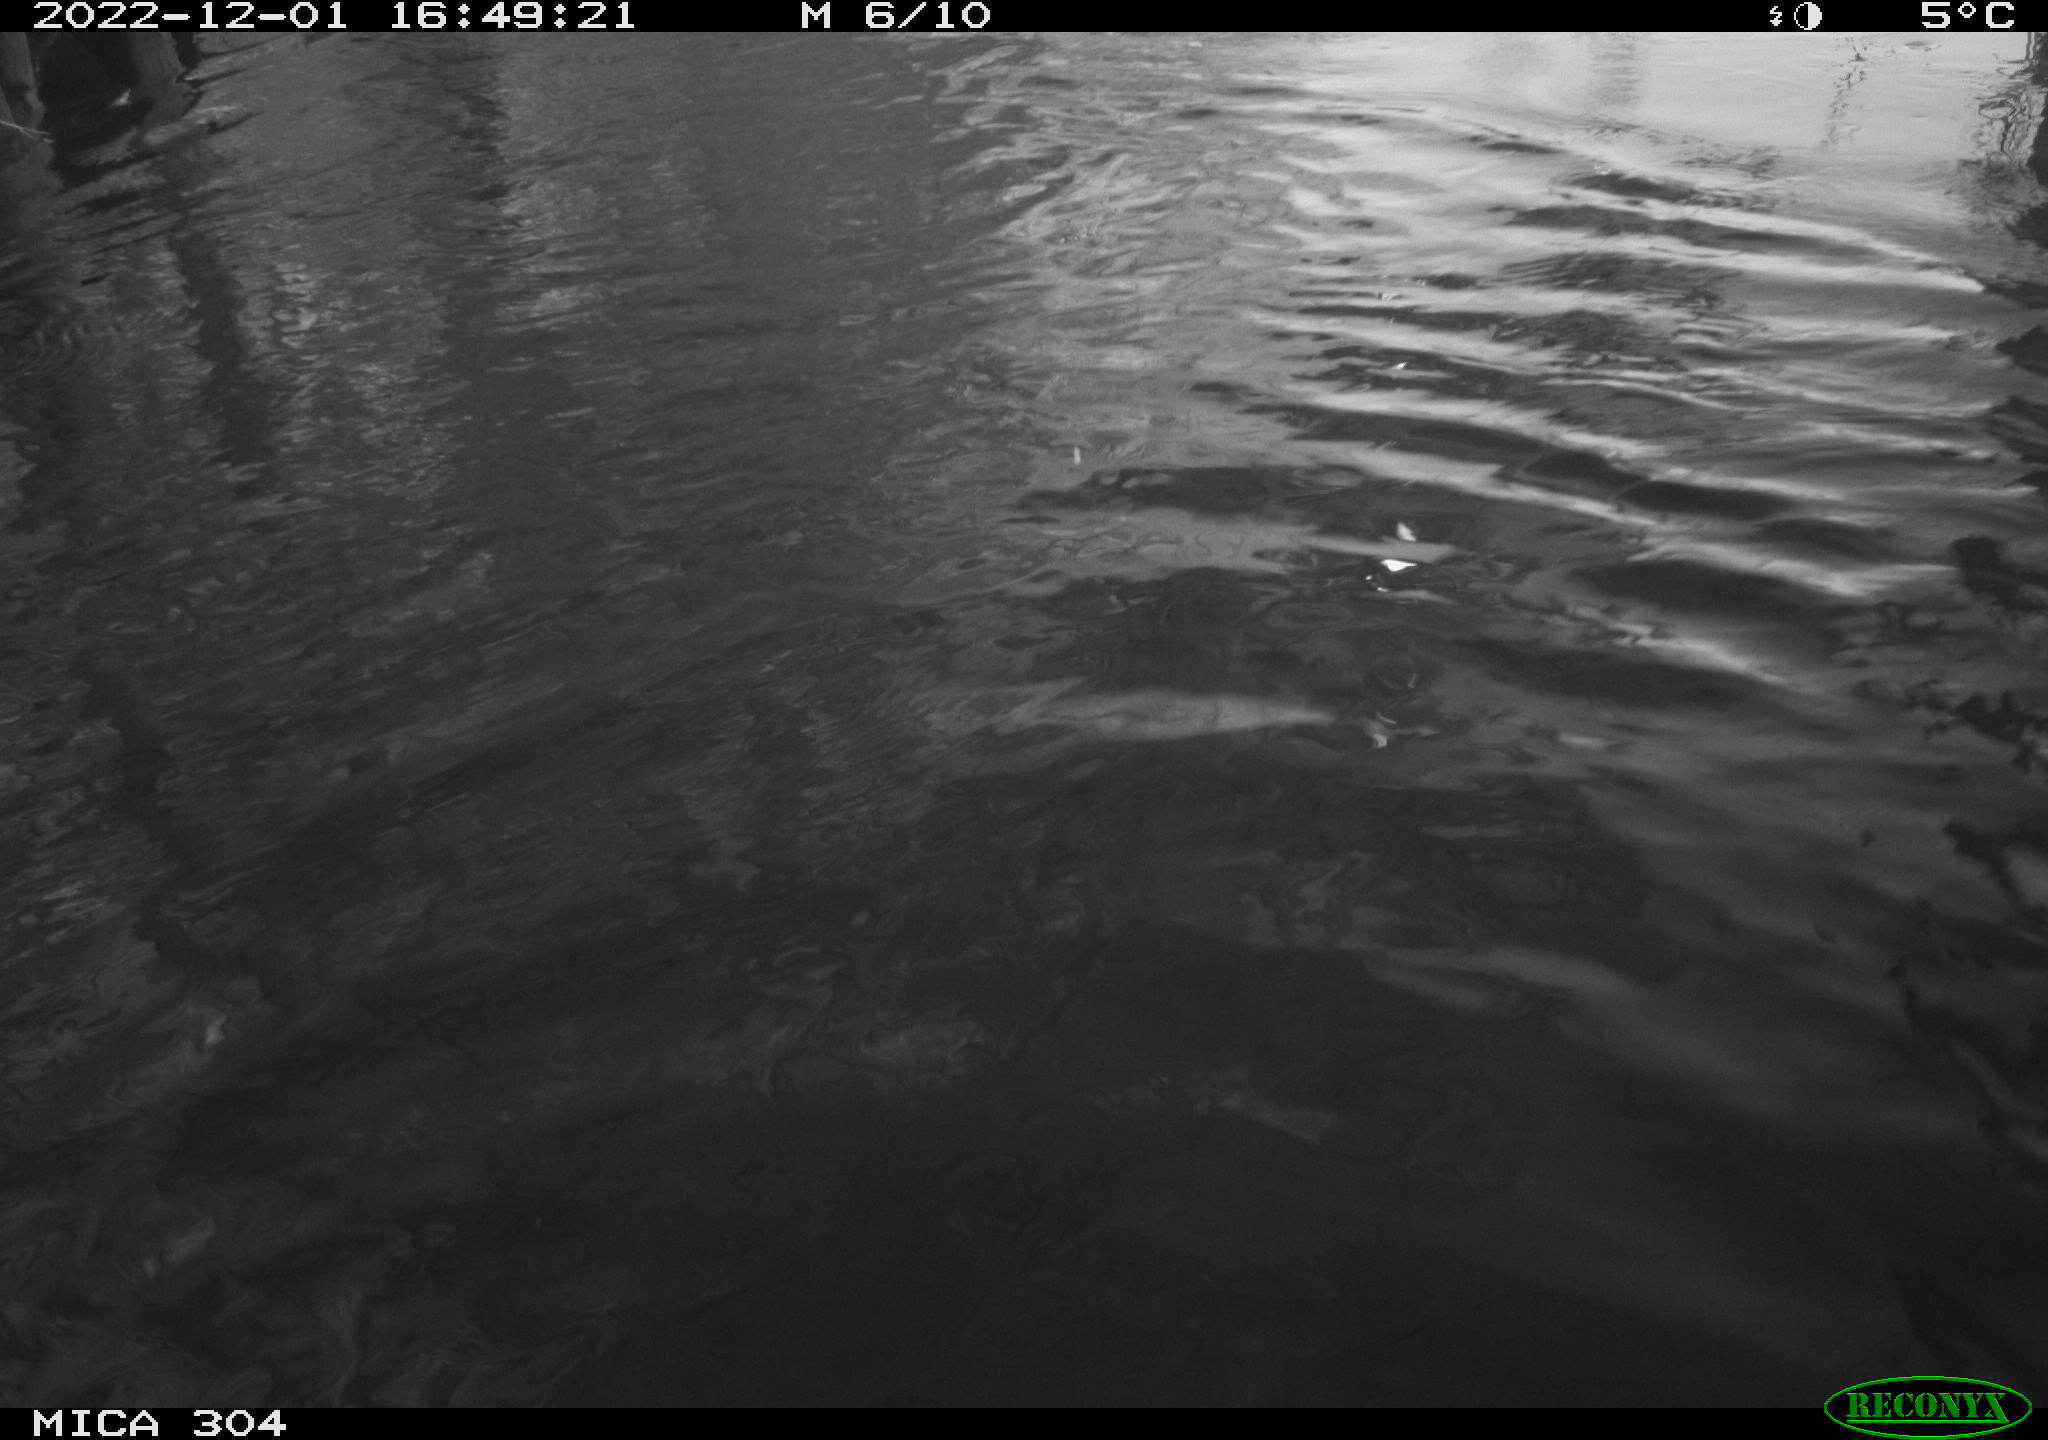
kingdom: Animalia
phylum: Chordata
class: Mammalia
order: Rodentia
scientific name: Rodentia
